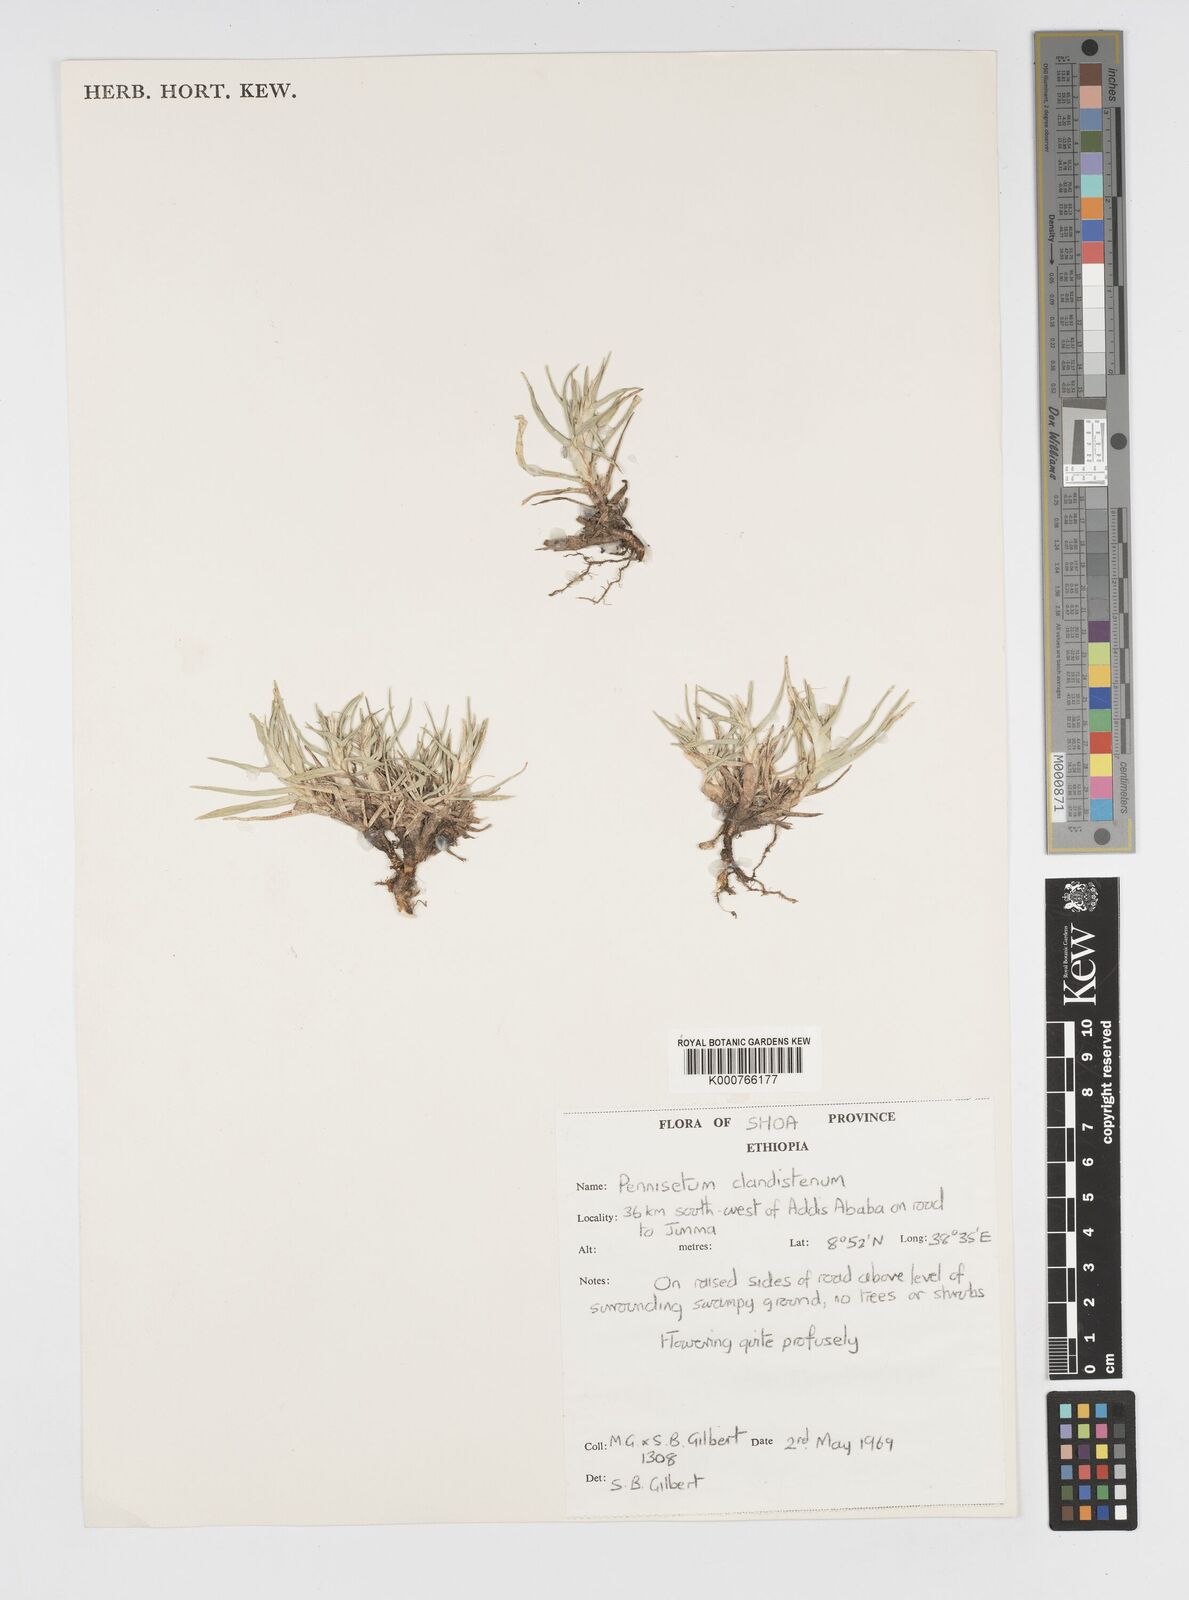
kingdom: Plantae
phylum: Tracheophyta
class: Liliopsida
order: Poales
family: Poaceae
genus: Cenchrus
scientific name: Cenchrus clandestinus
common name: Kikuyugrass
